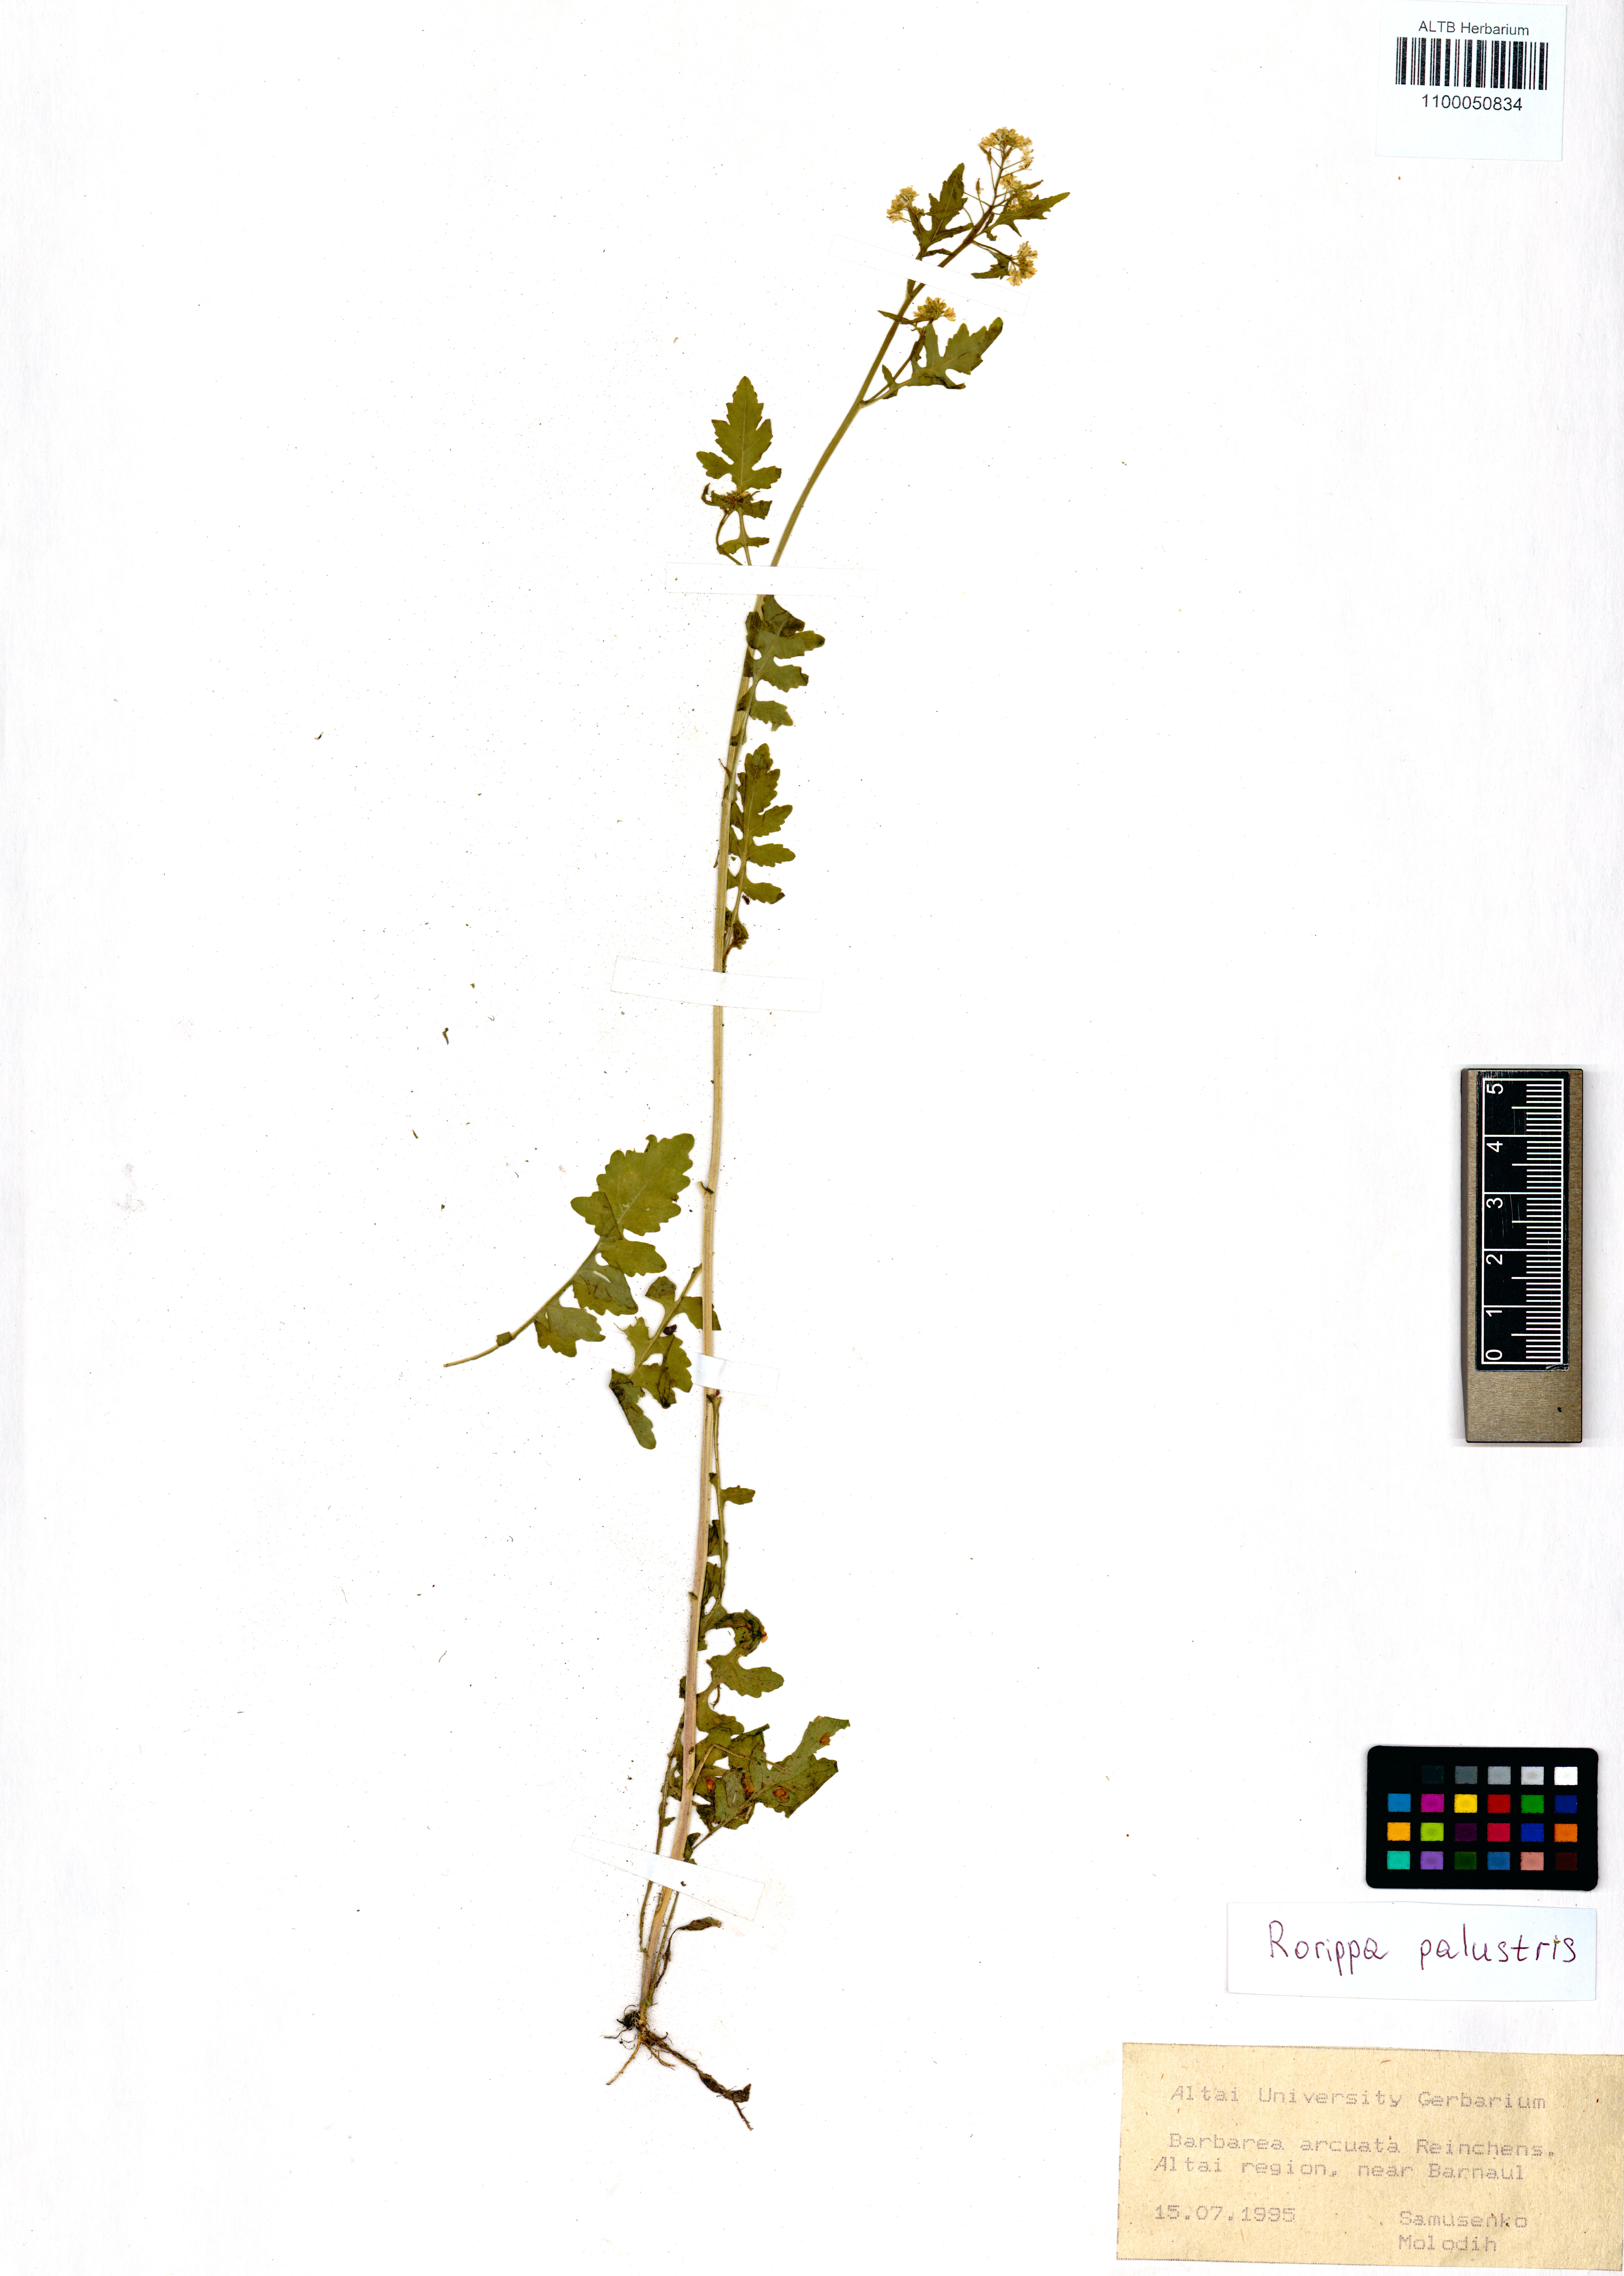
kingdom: Plantae
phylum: Tracheophyta
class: Magnoliopsida
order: Brassicales
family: Brassicaceae
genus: Rorippa
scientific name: Rorippa palustris
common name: Marsh yellow-cress
